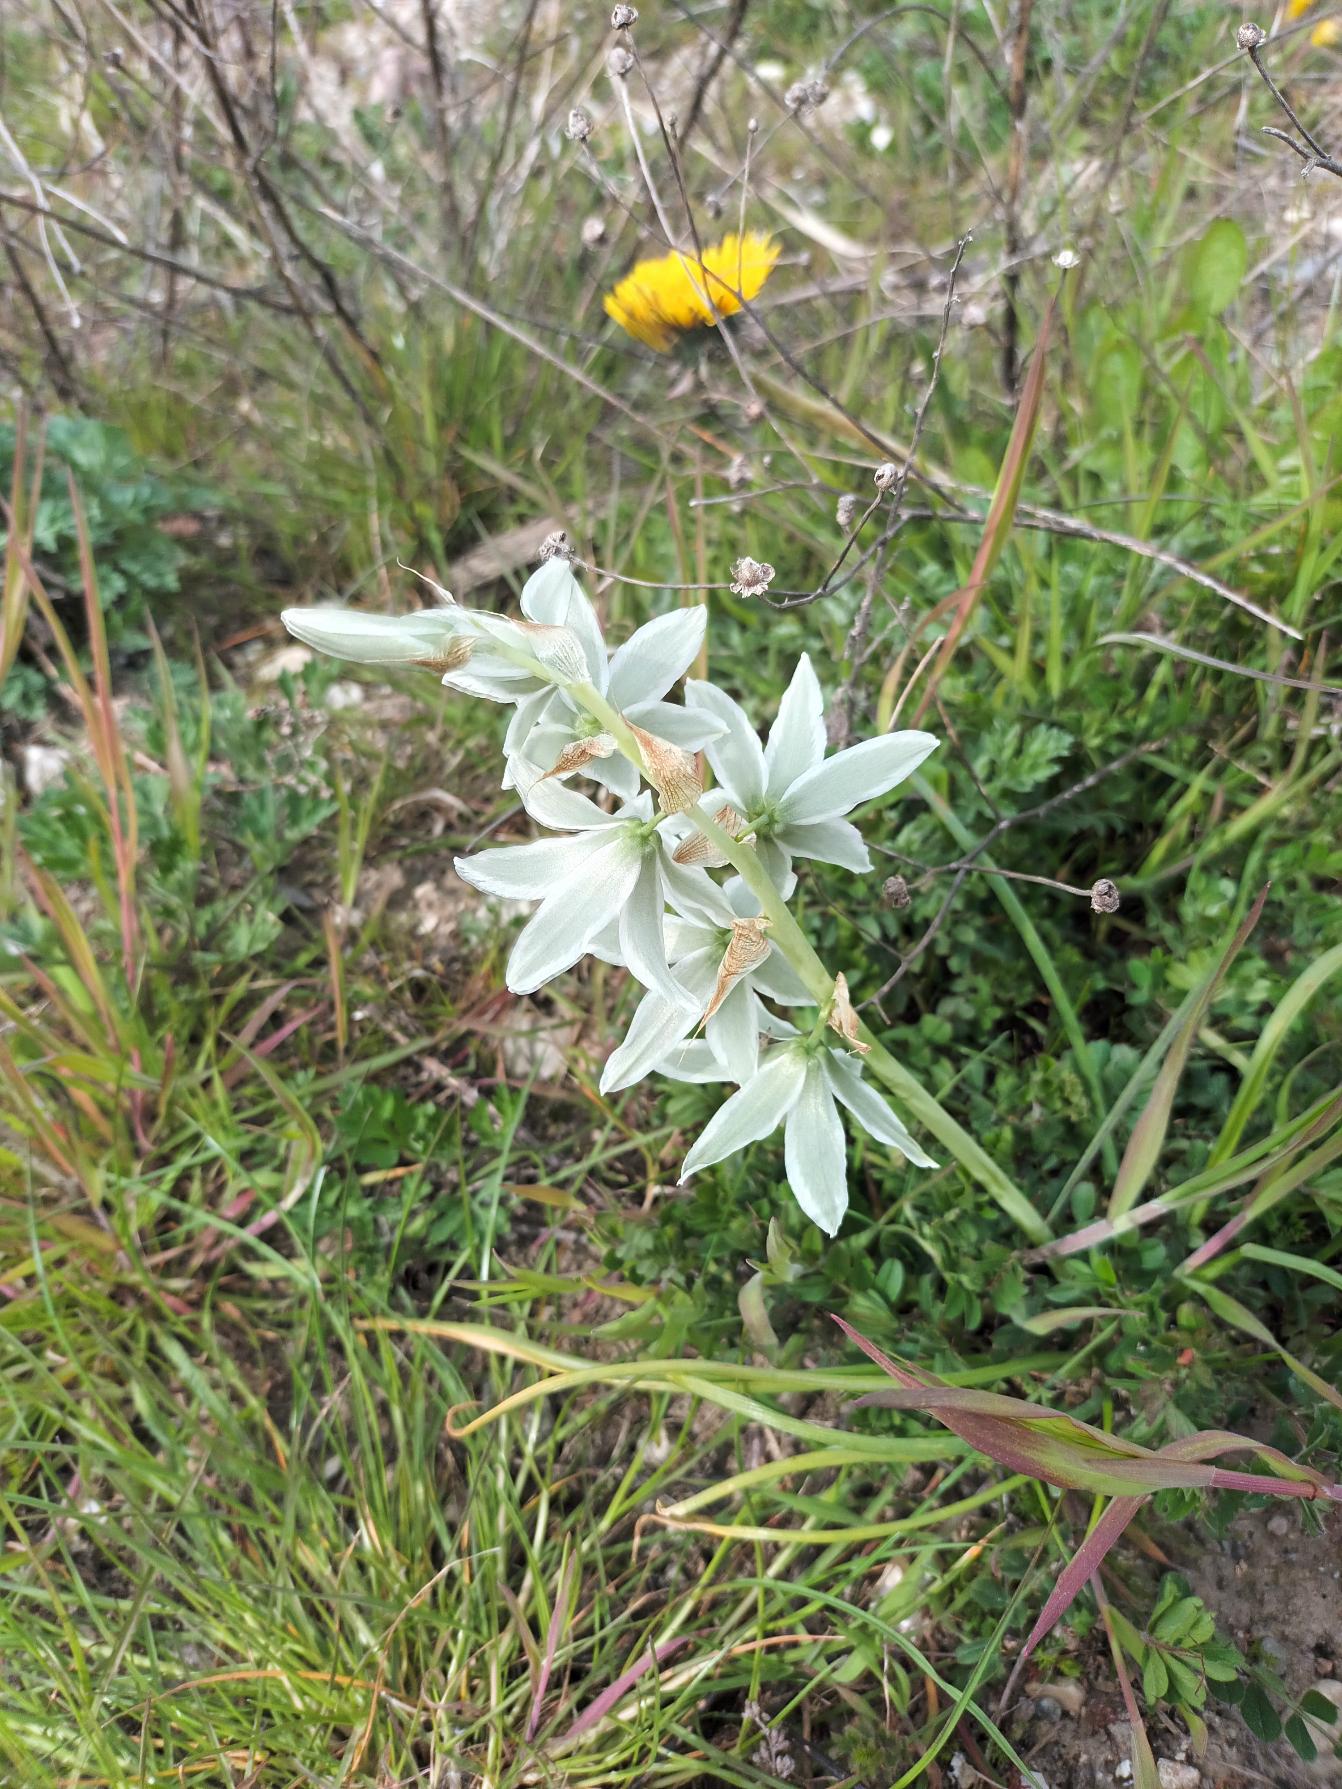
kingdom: Plantae
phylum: Tracheophyta
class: Liliopsida
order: Asparagales
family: Asparagaceae
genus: Ornithogalum
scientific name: Ornithogalum nutans
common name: Nikkende fuglemælk
